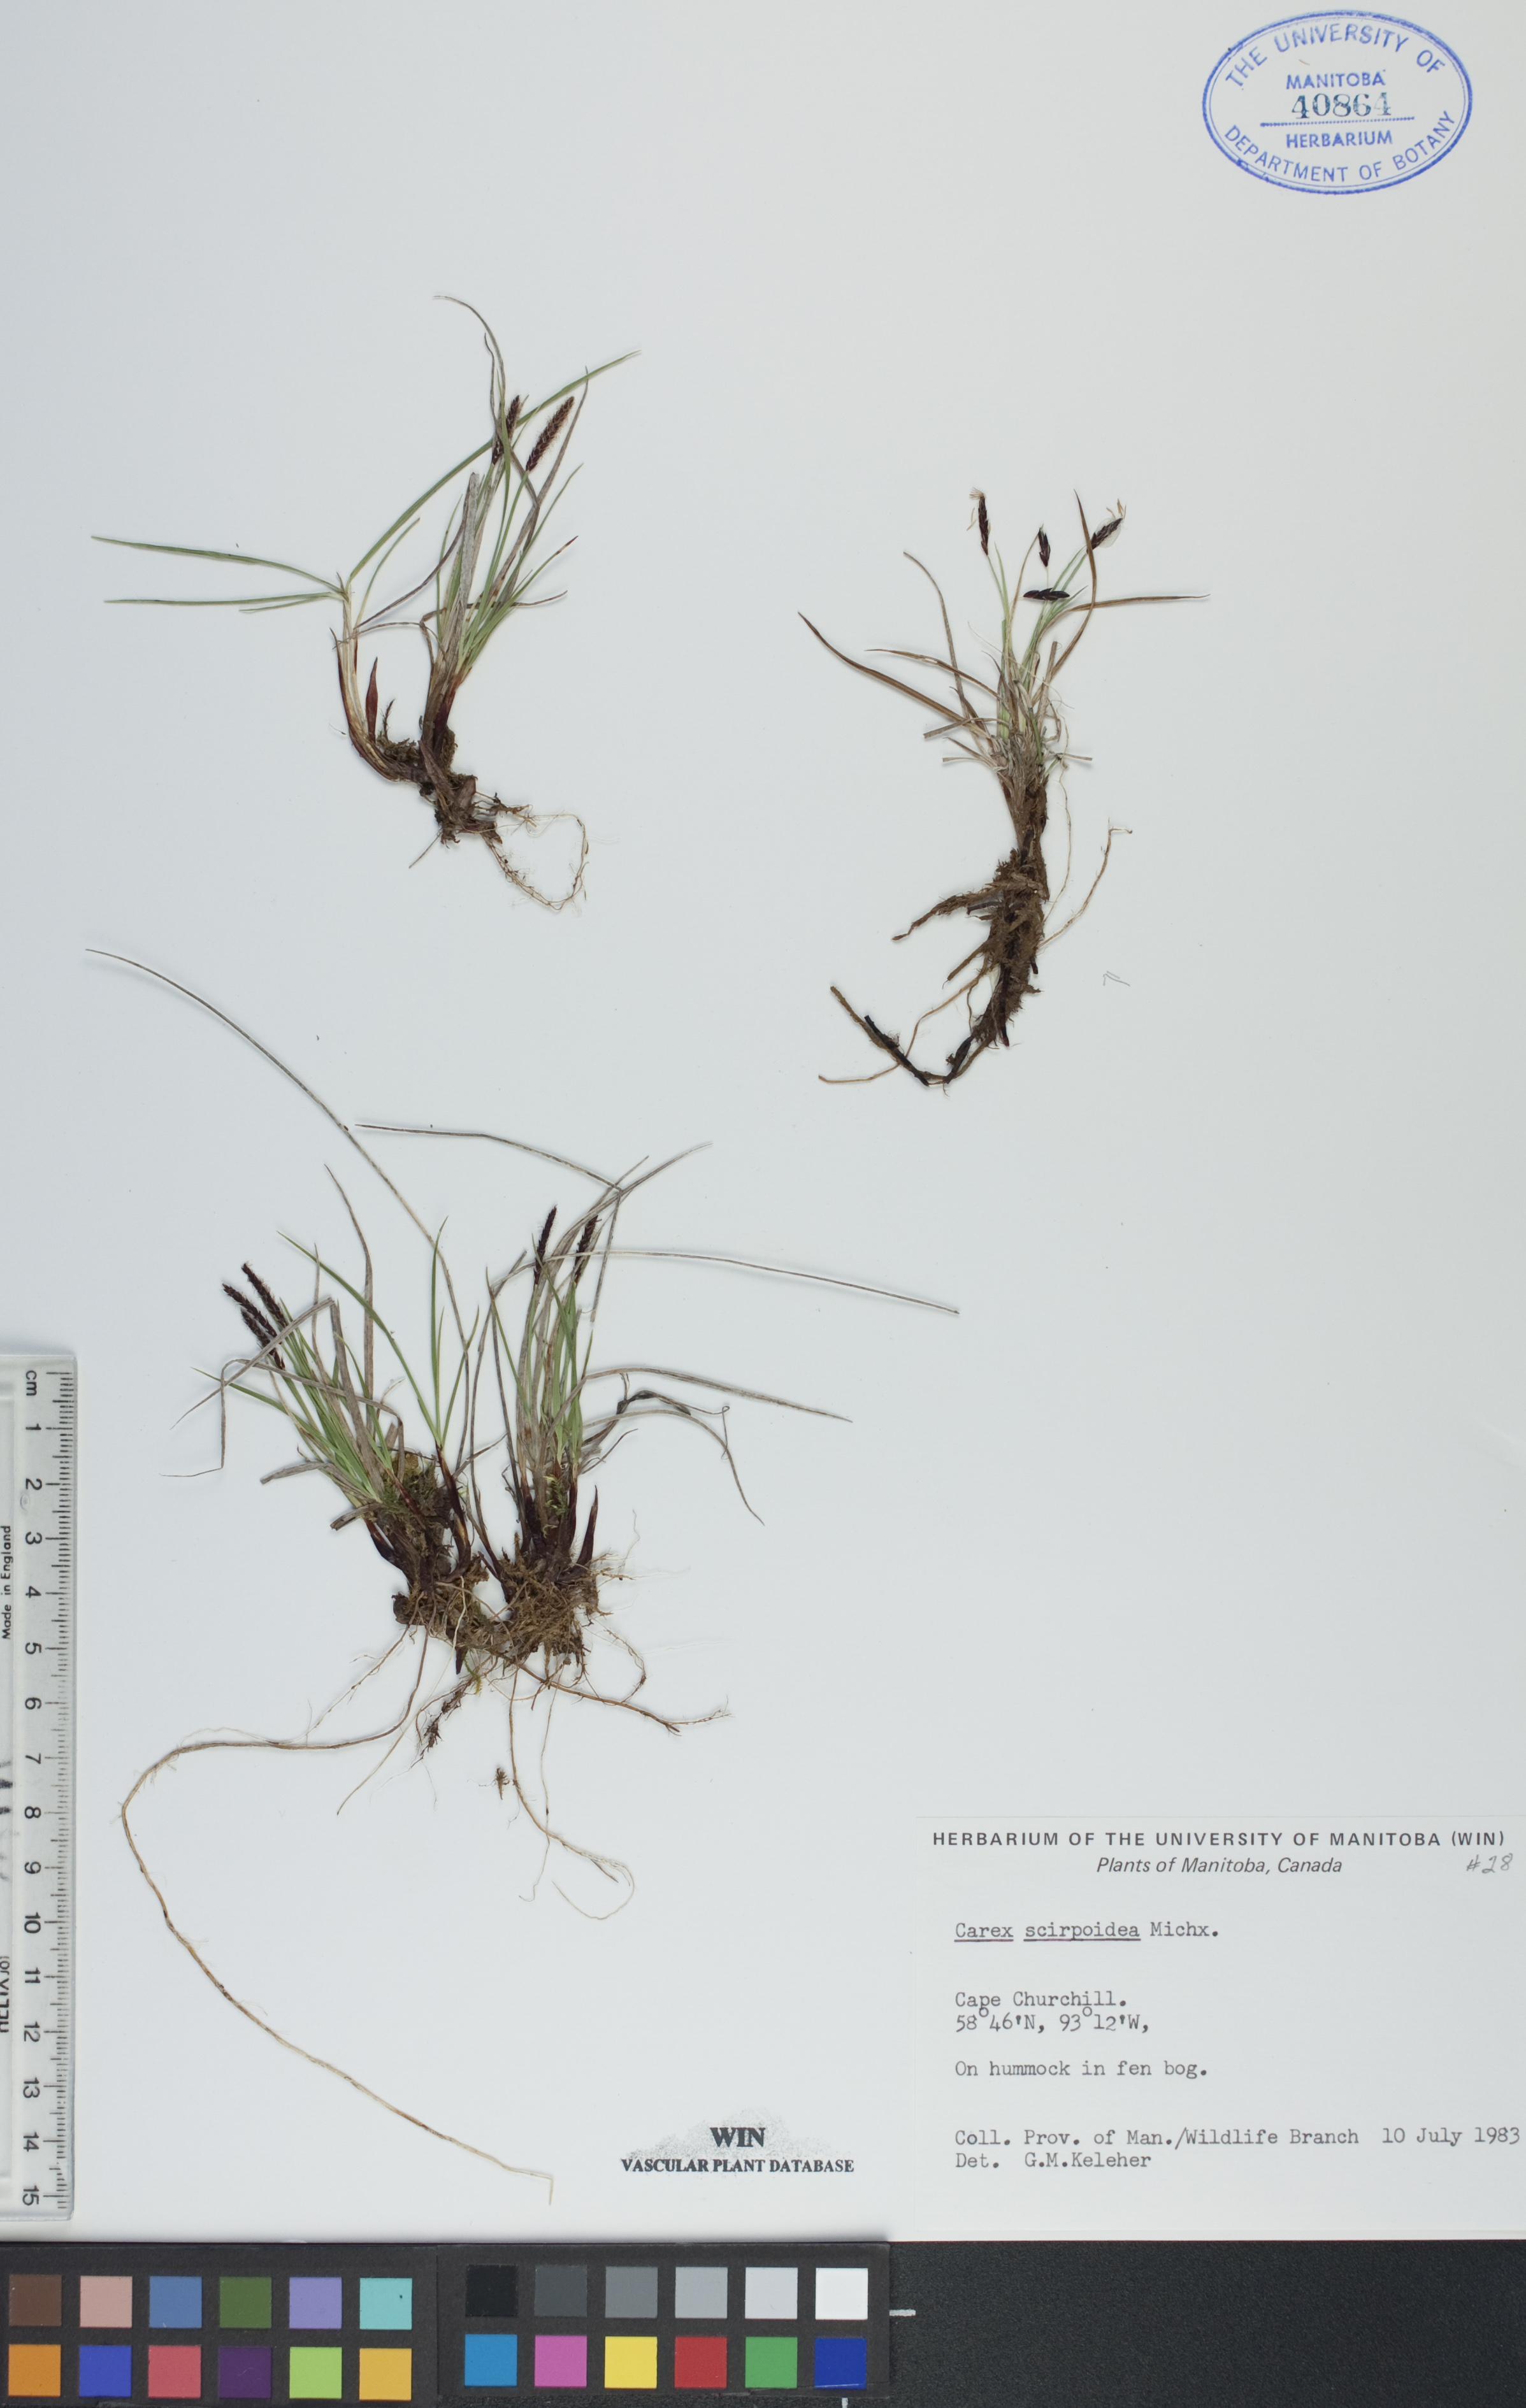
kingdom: Plantae
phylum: Tracheophyta
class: Liliopsida
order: Poales
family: Cyperaceae
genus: Carex
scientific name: Carex scirpoidea
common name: Canada single-spike sedge
